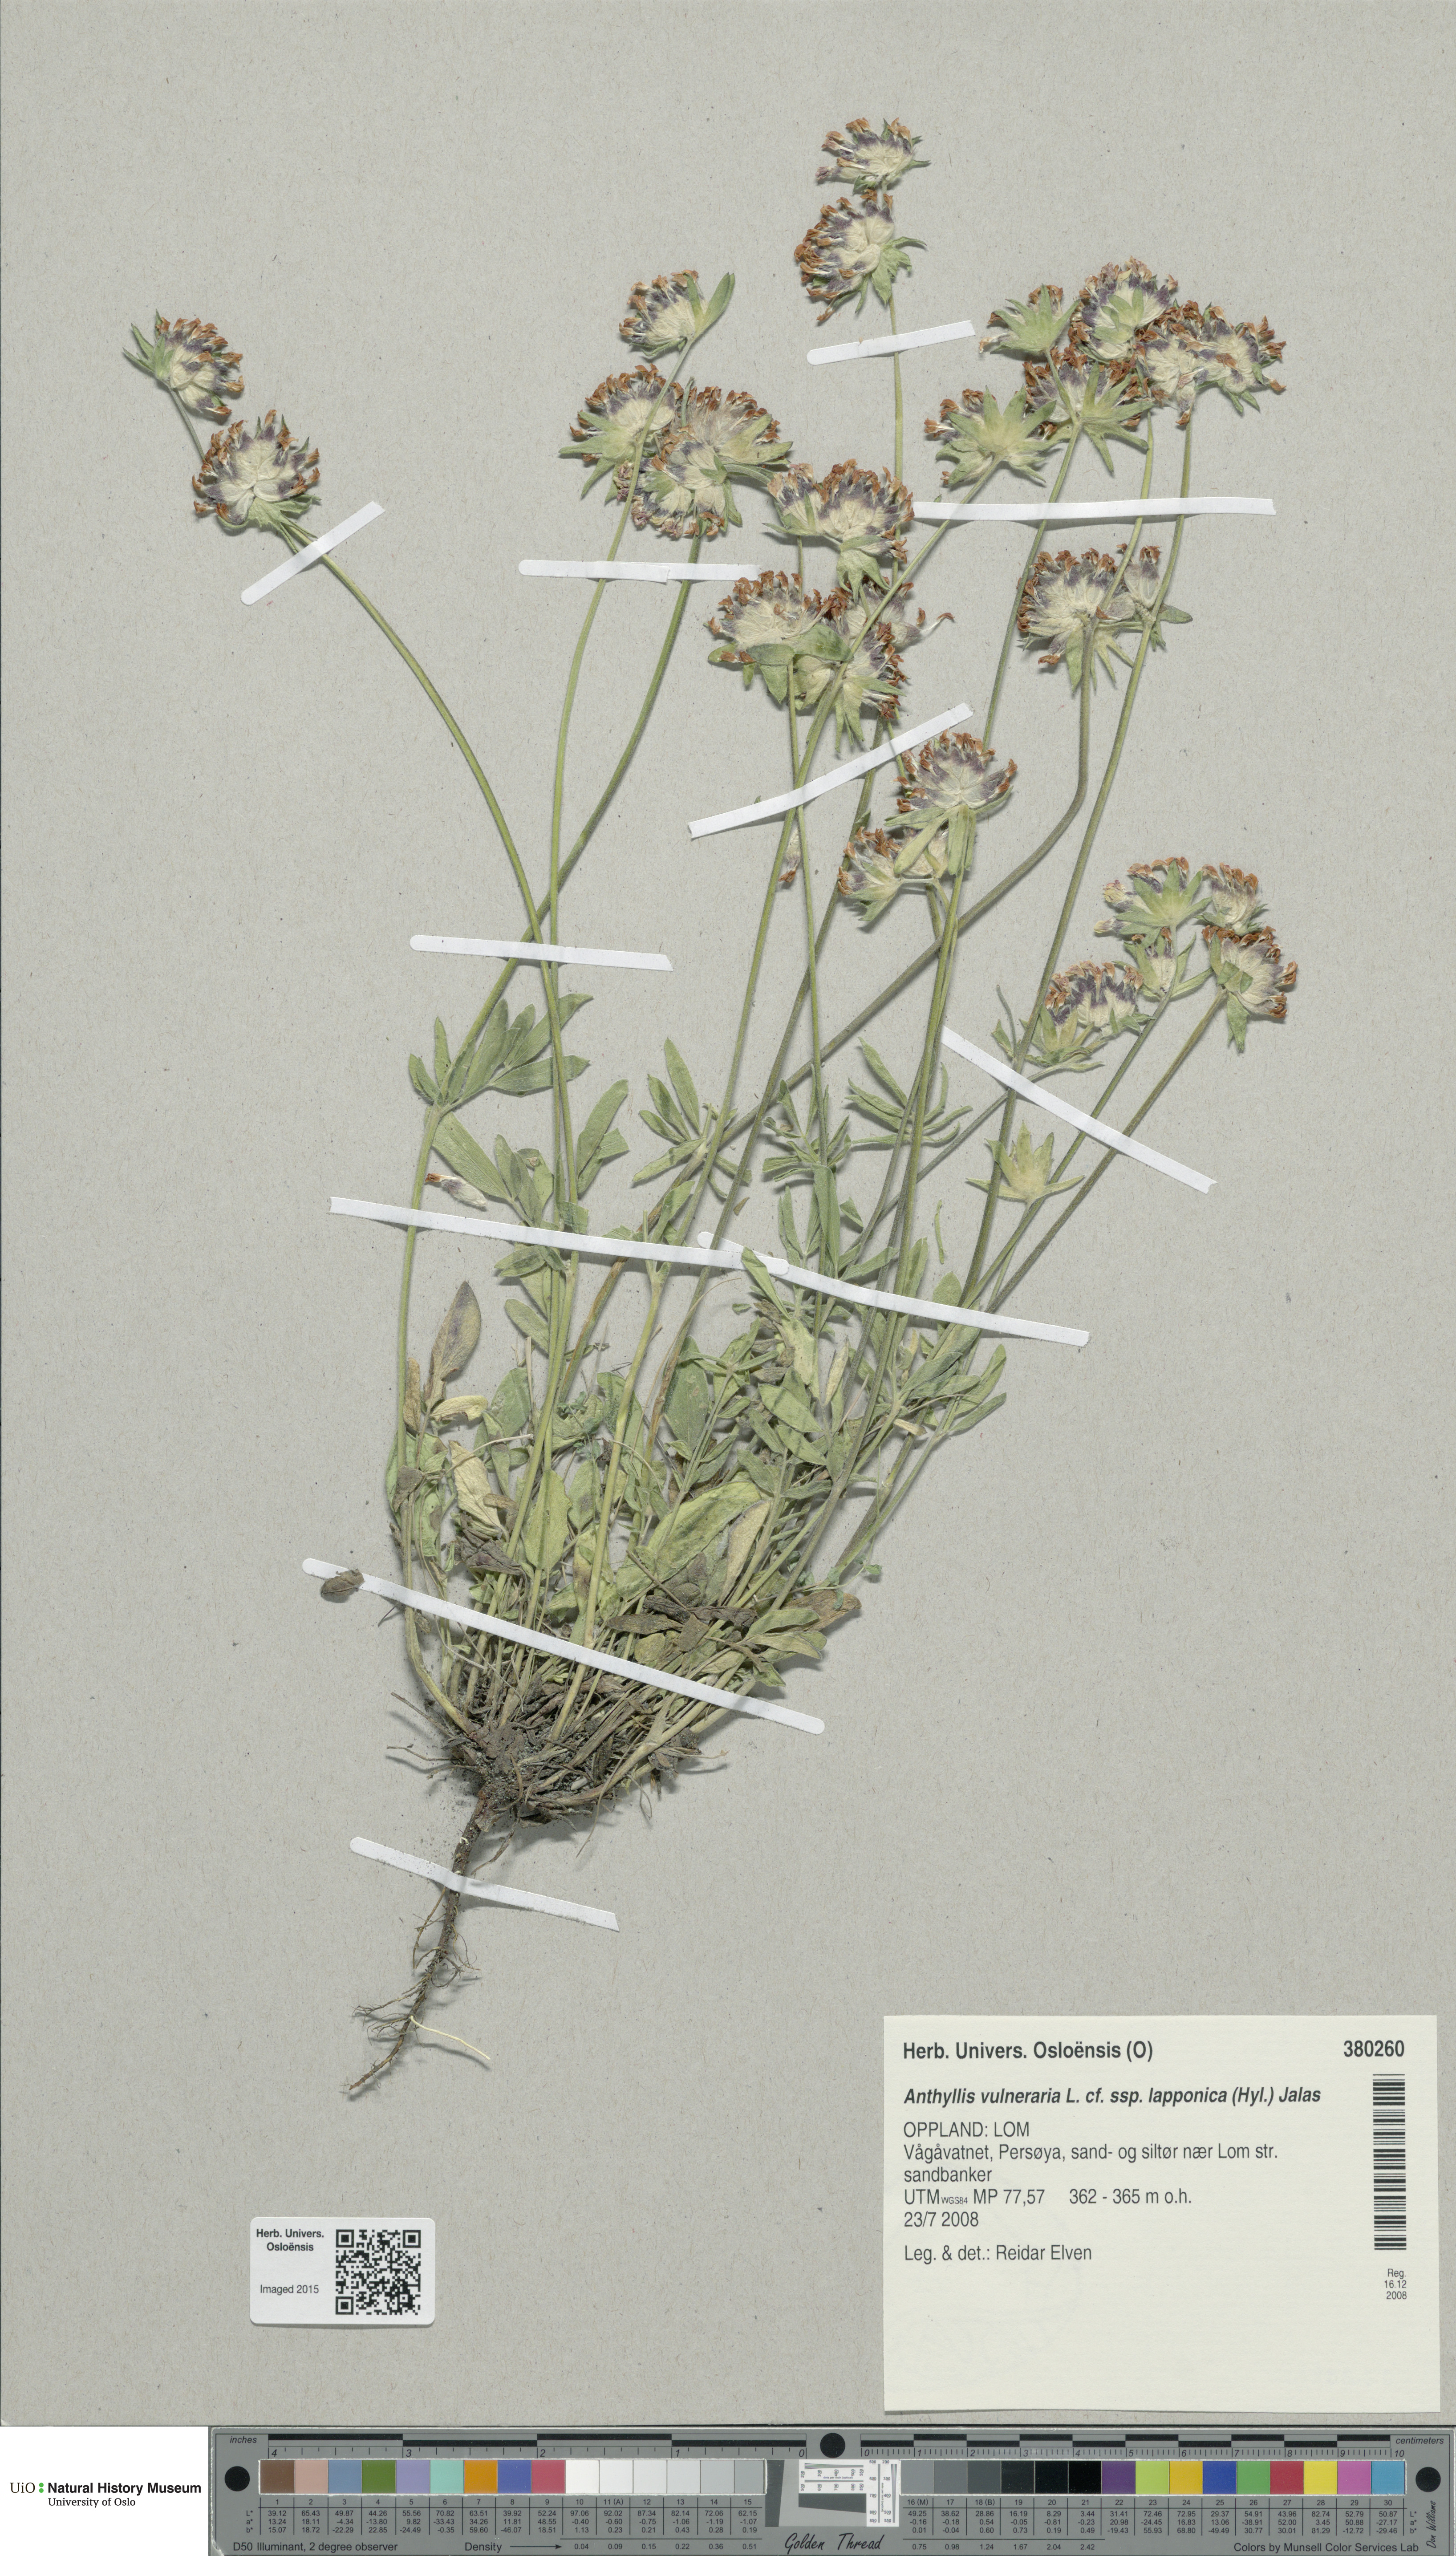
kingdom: Plantae
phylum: Tracheophyta
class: Magnoliopsida
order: Fabales
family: Fabaceae
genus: Anthyllis
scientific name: Anthyllis vulneraria
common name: Kidney vetch
